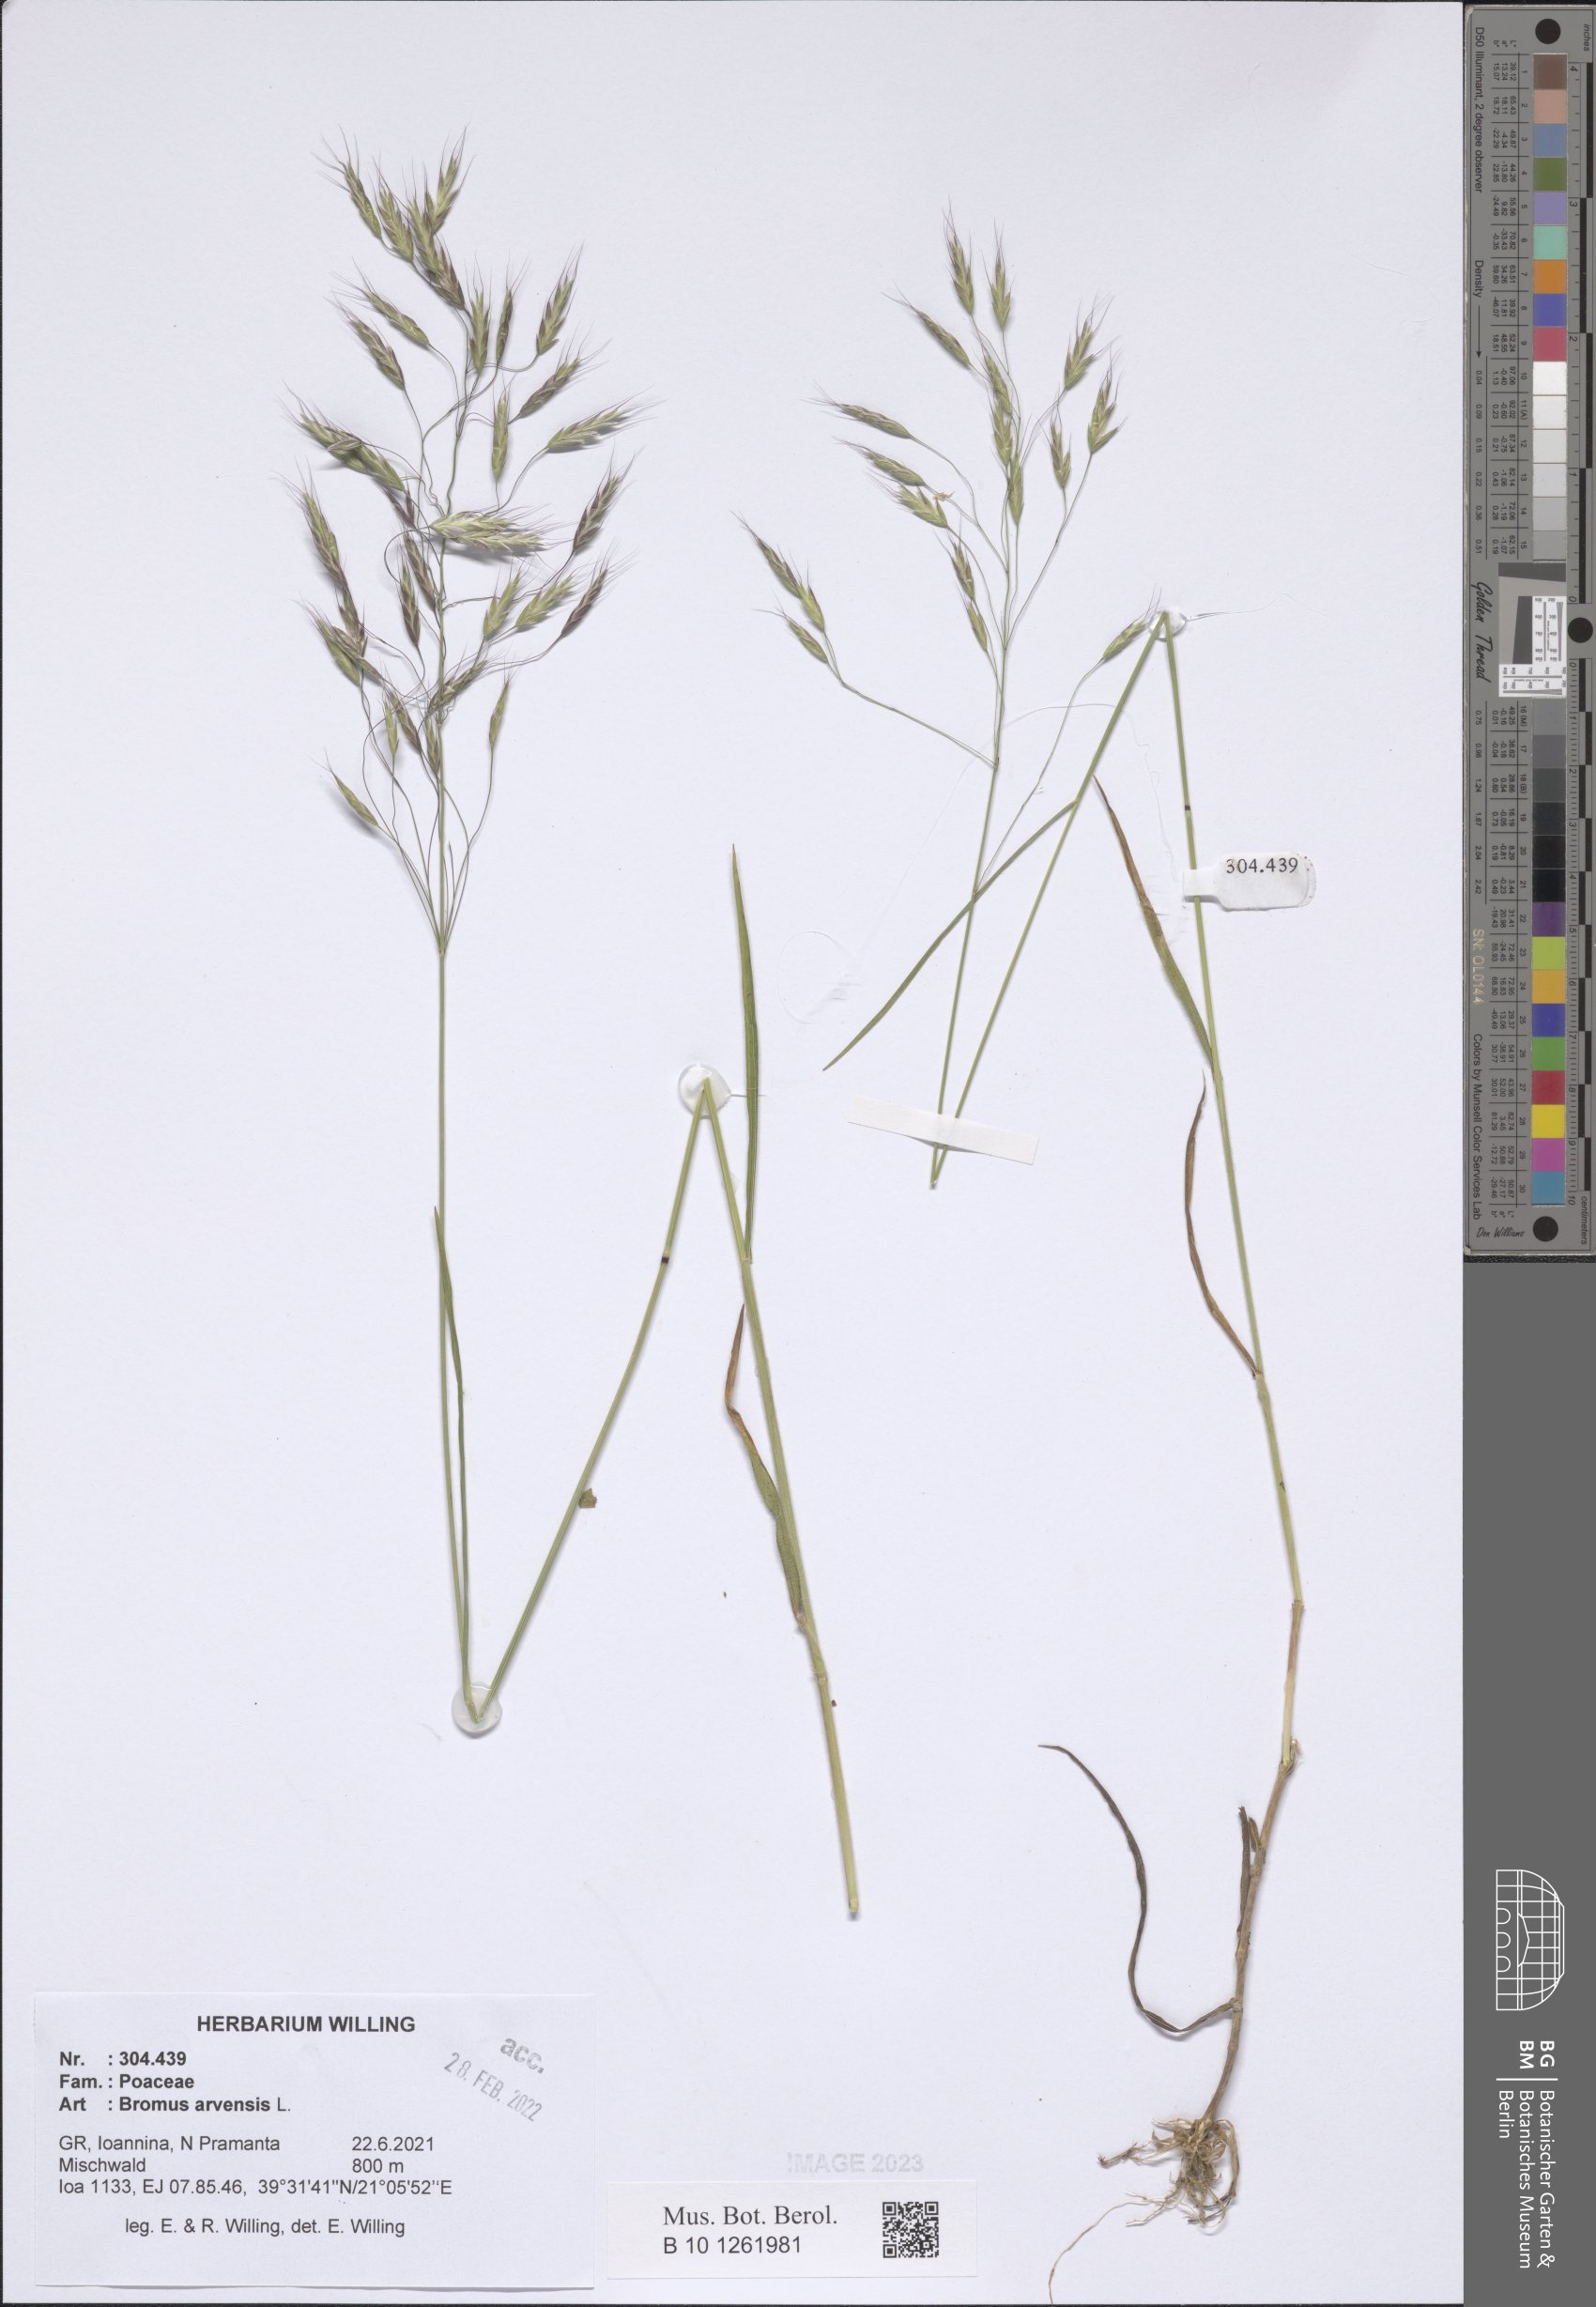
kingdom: Plantae
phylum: Tracheophyta
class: Liliopsida
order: Poales
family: Poaceae
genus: Bromus
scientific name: Bromus arvensis
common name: Field brome
